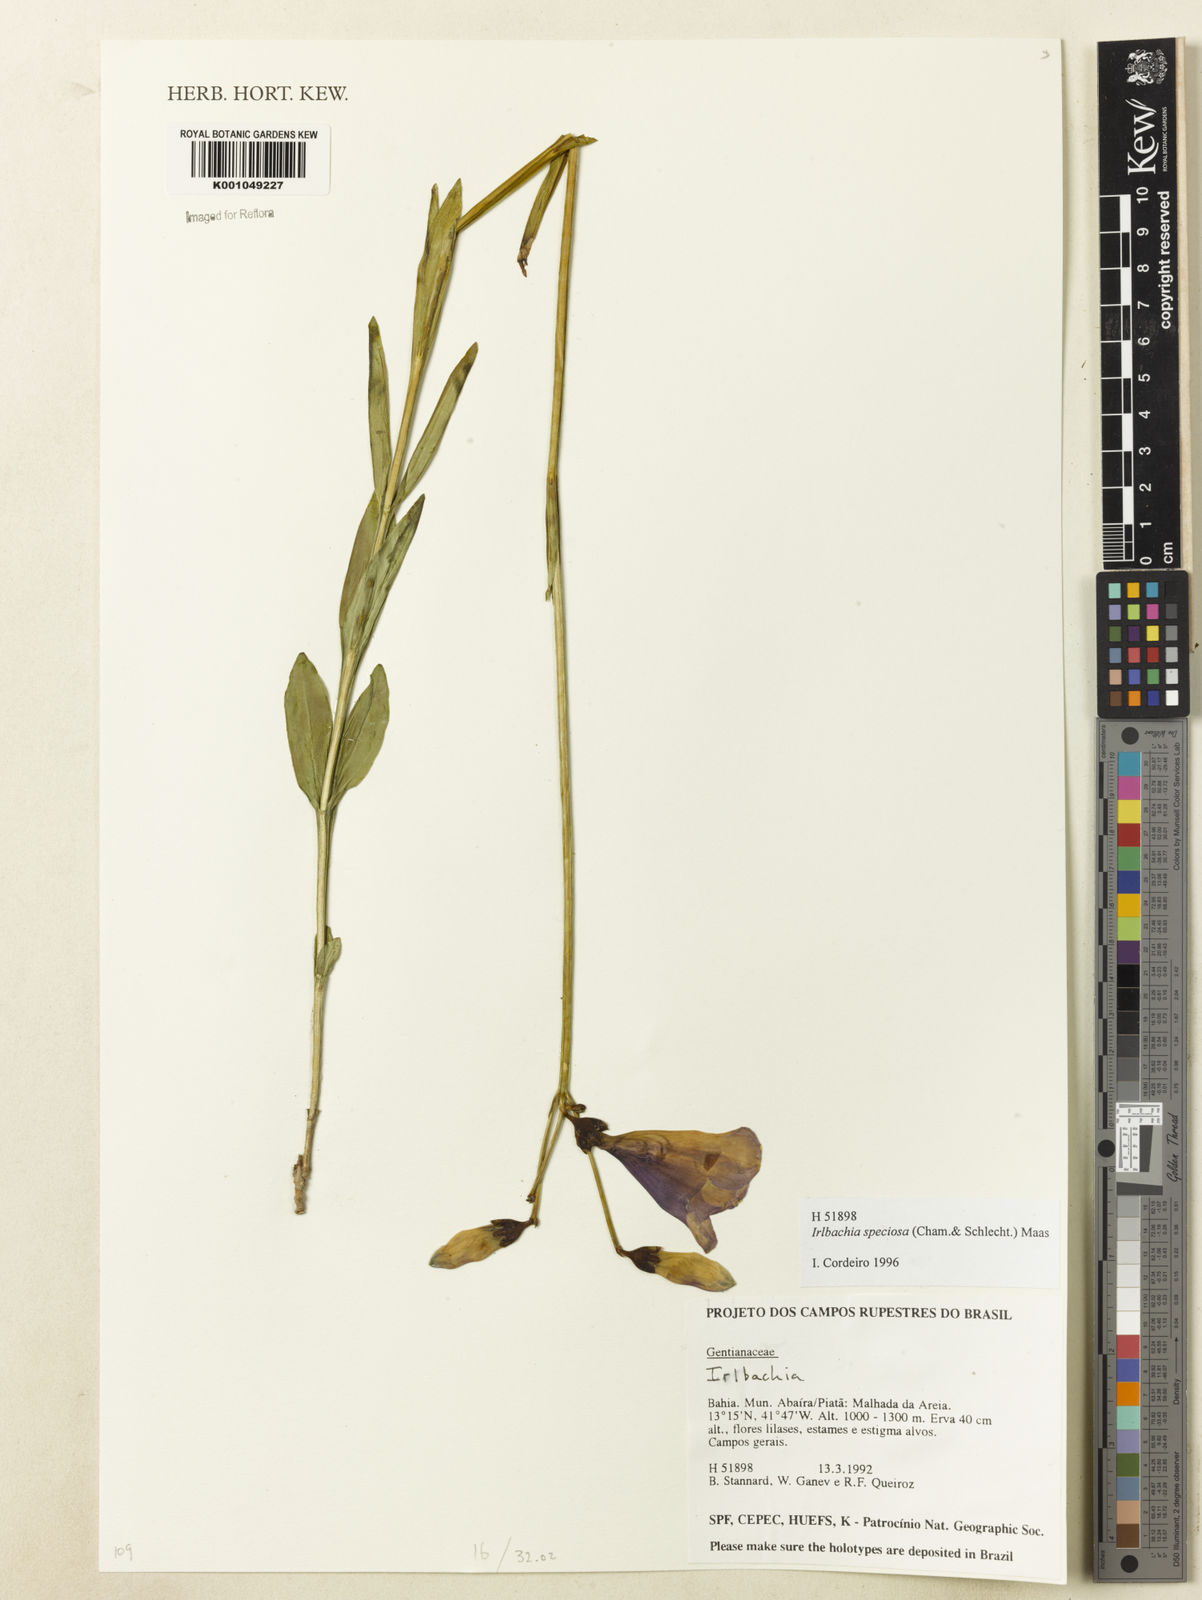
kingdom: Plantae
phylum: Tracheophyta
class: Magnoliopsida
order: Gentianales
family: Gentianaceae
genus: Calolisianthus
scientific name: Calolisianthus speciosus
